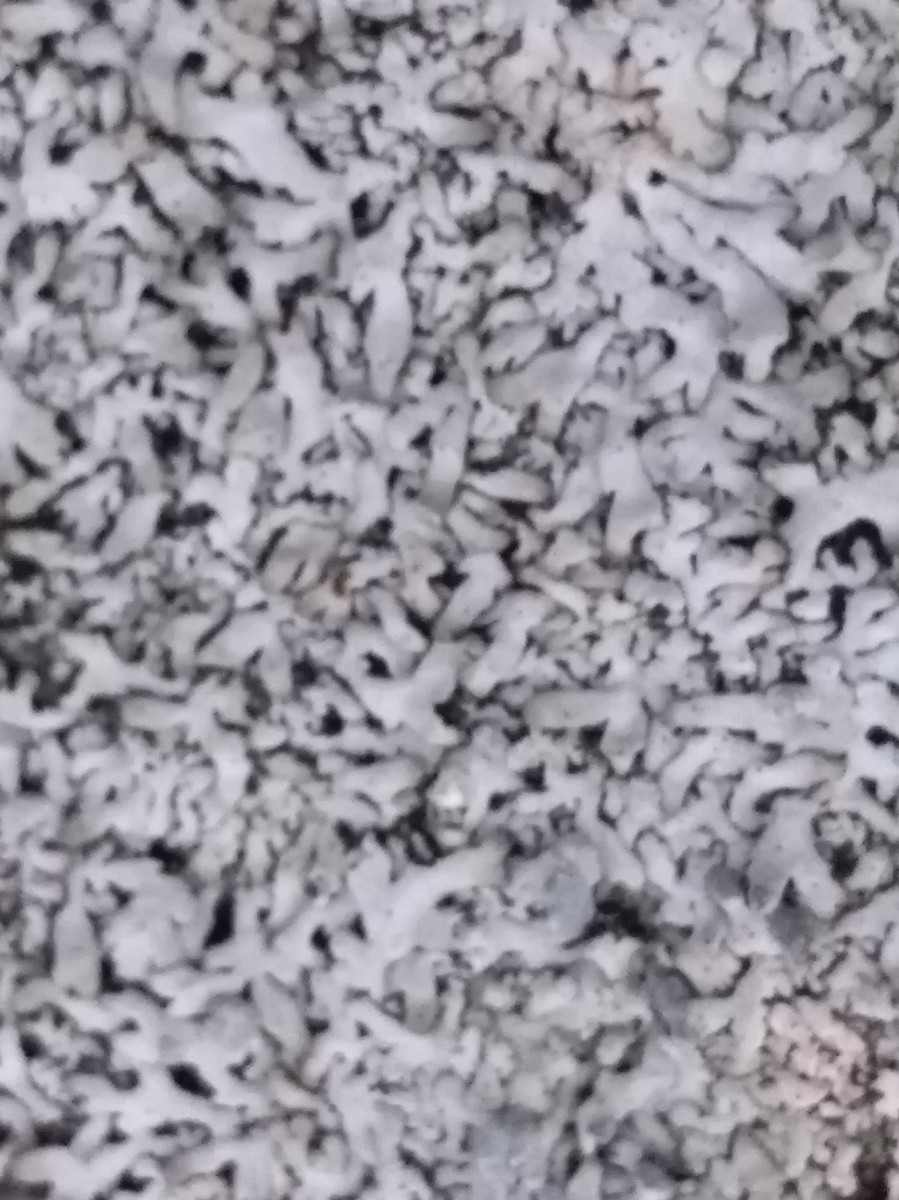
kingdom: Fungi
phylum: Ascomycota
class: Lecanoromycetes
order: Caliciales
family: Physciaceae
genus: Physcia
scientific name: Physcia
